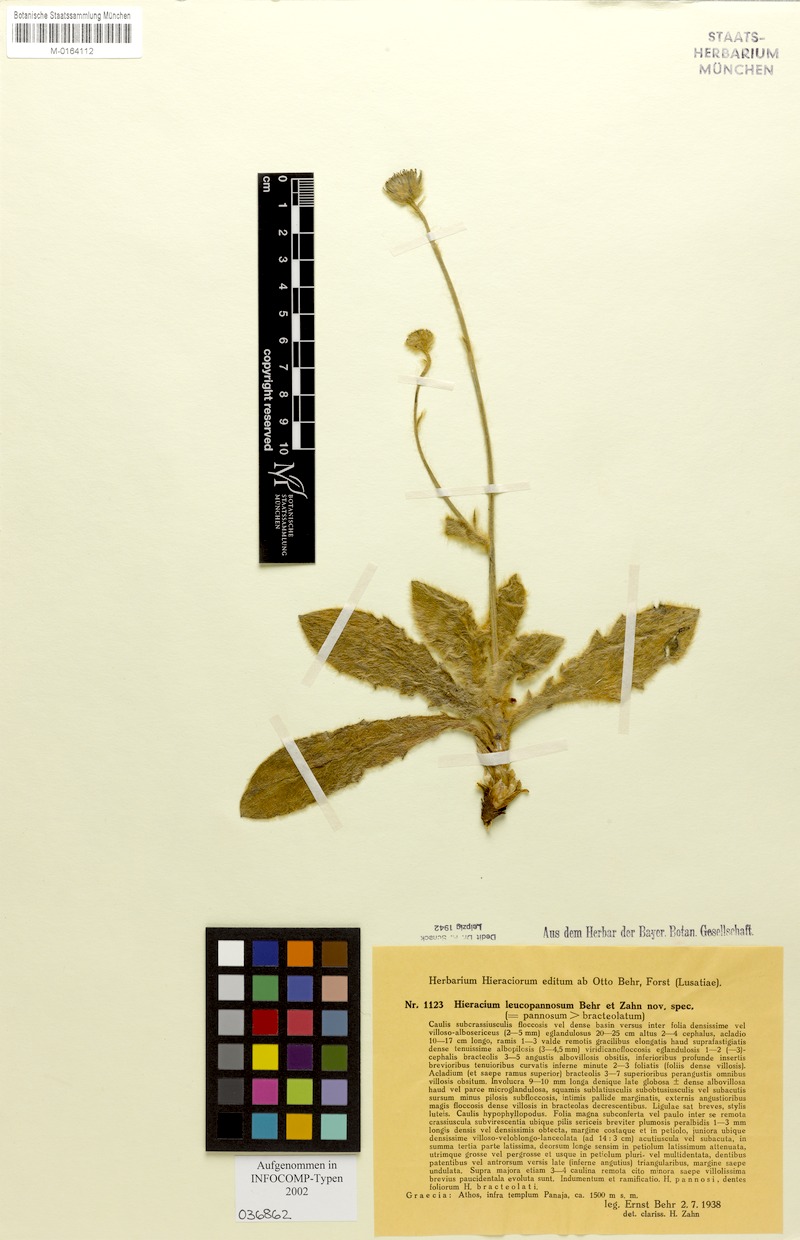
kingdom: Plantae
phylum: Tracheophyta
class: Magnoliopsida
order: Asterales
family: Asteraceae
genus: Hieracium
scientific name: Hieracium triadanum
